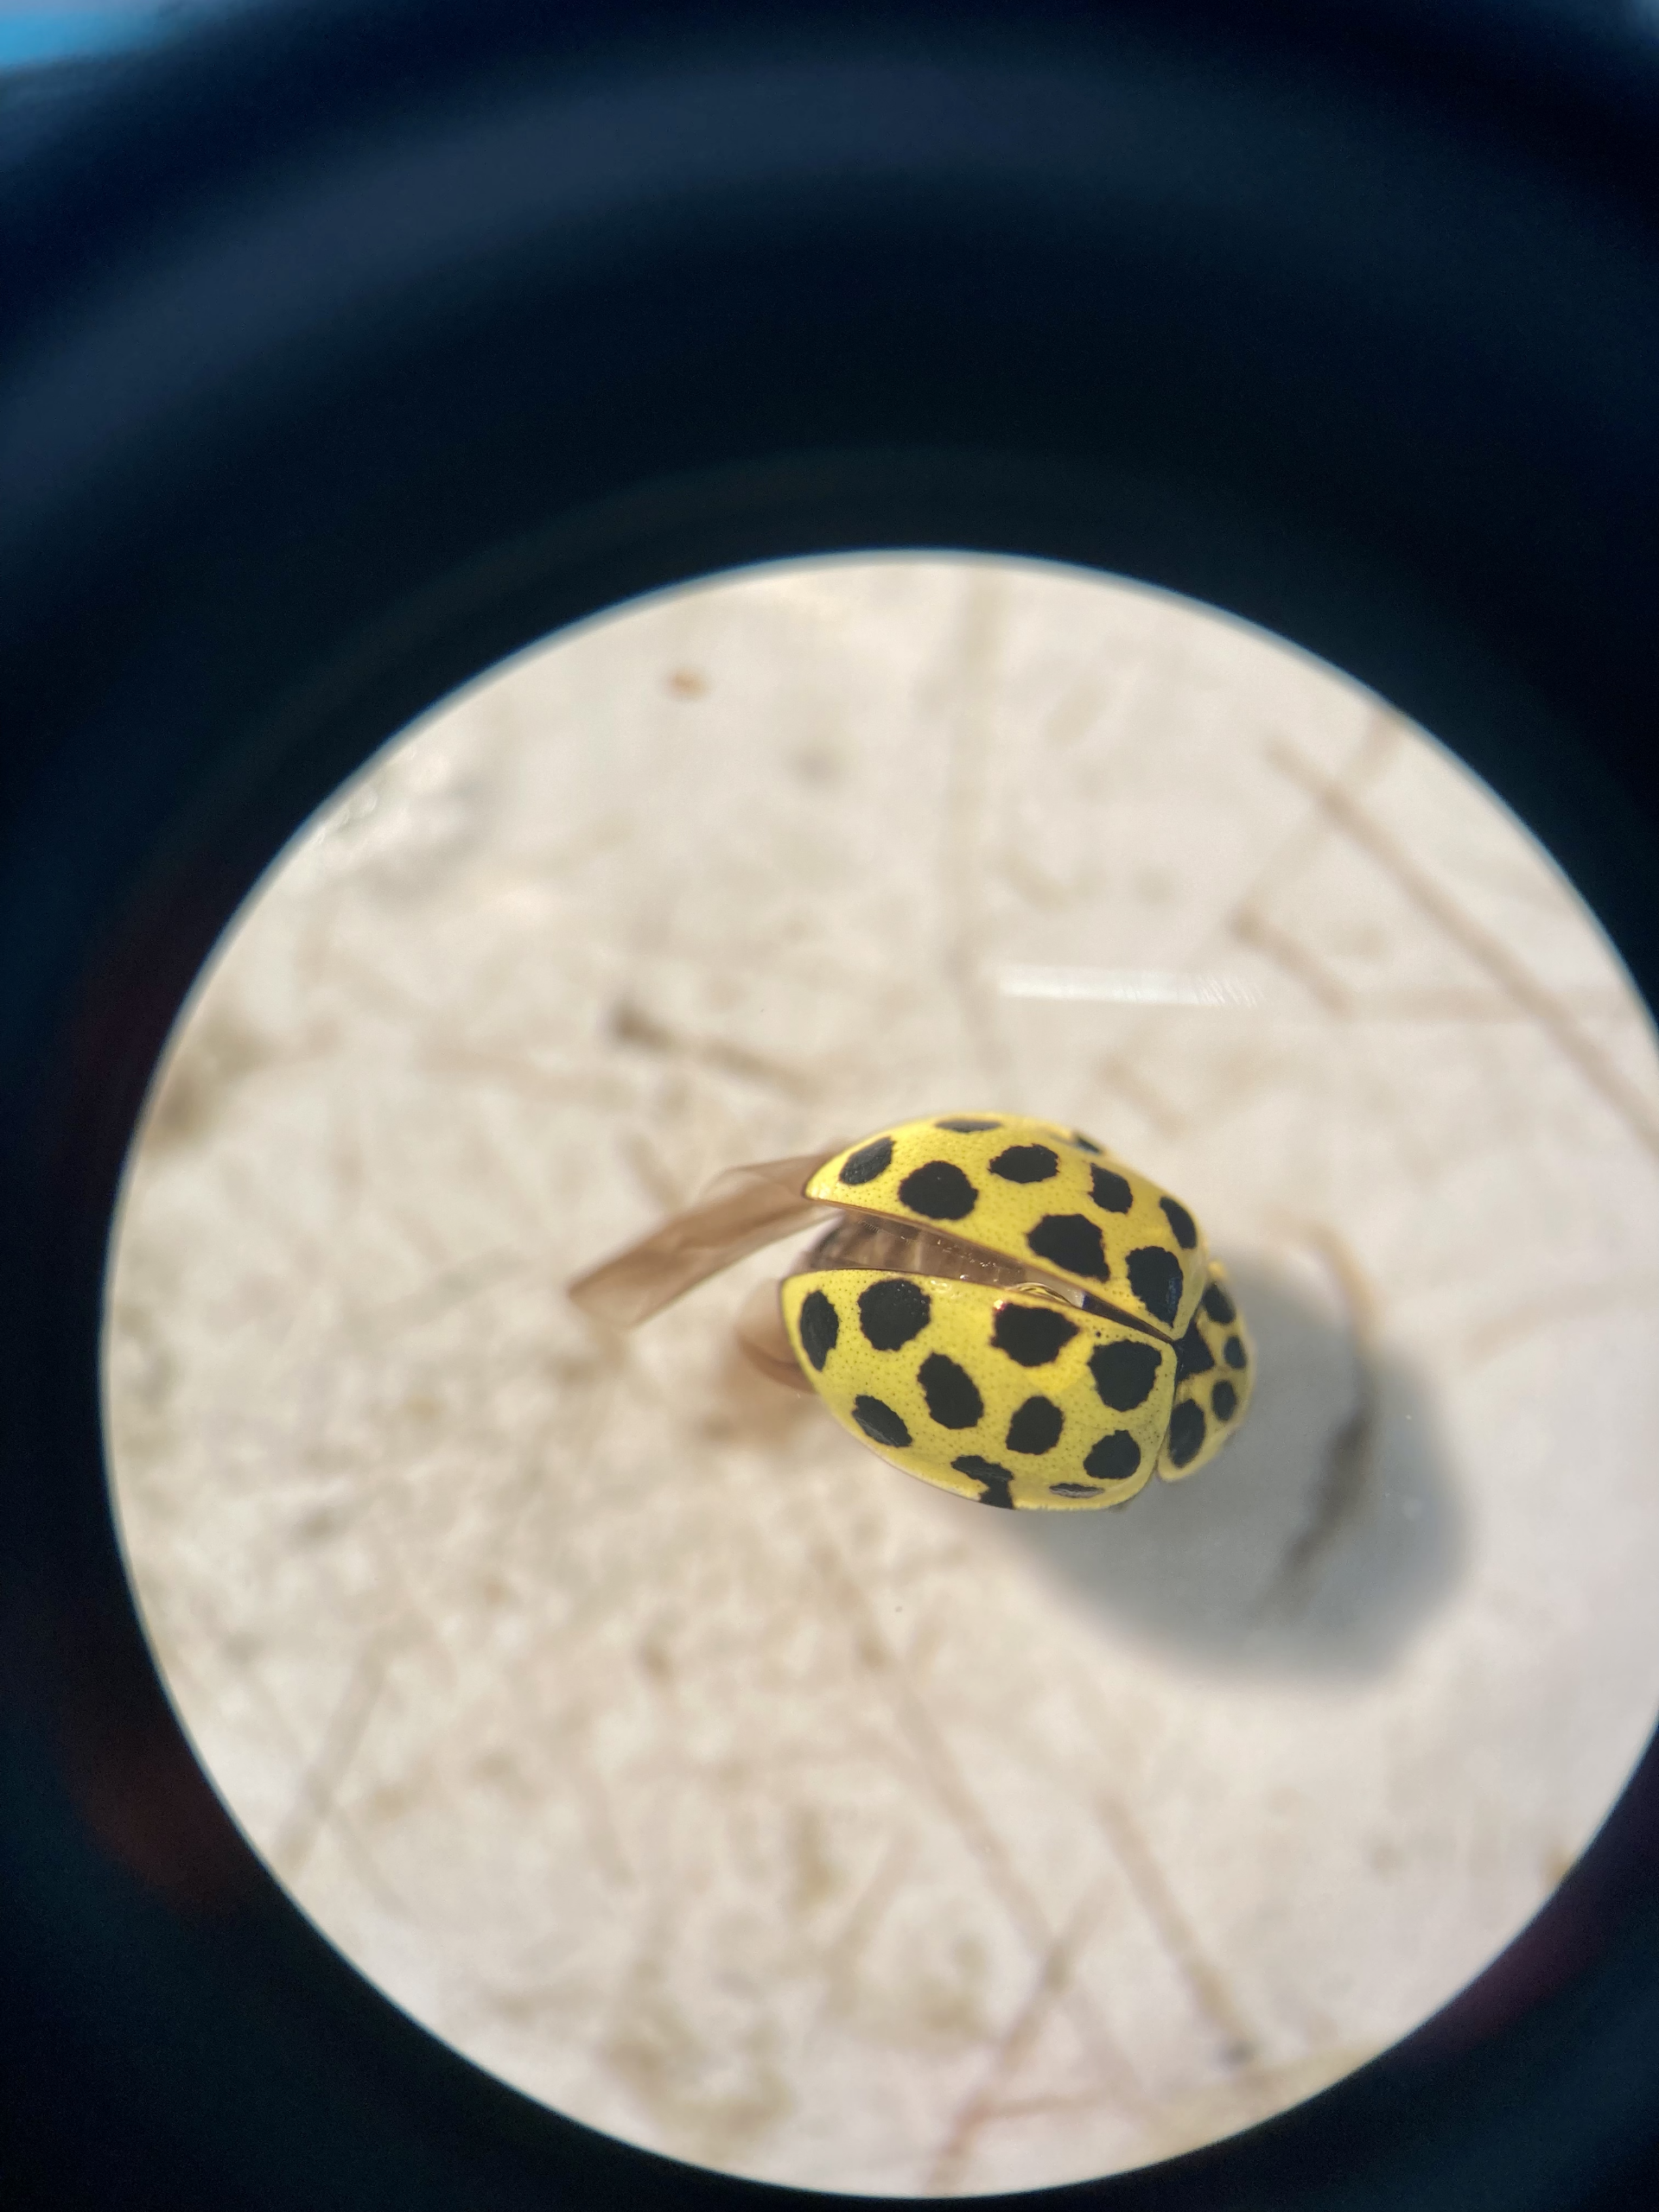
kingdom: Animalia
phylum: Arthropoda
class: Insecta
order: Coleoptera
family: Coccinellidae
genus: Psyllobora
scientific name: Psyllobora vigintiduopunctata
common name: Toogtyveplettet mariehøne
